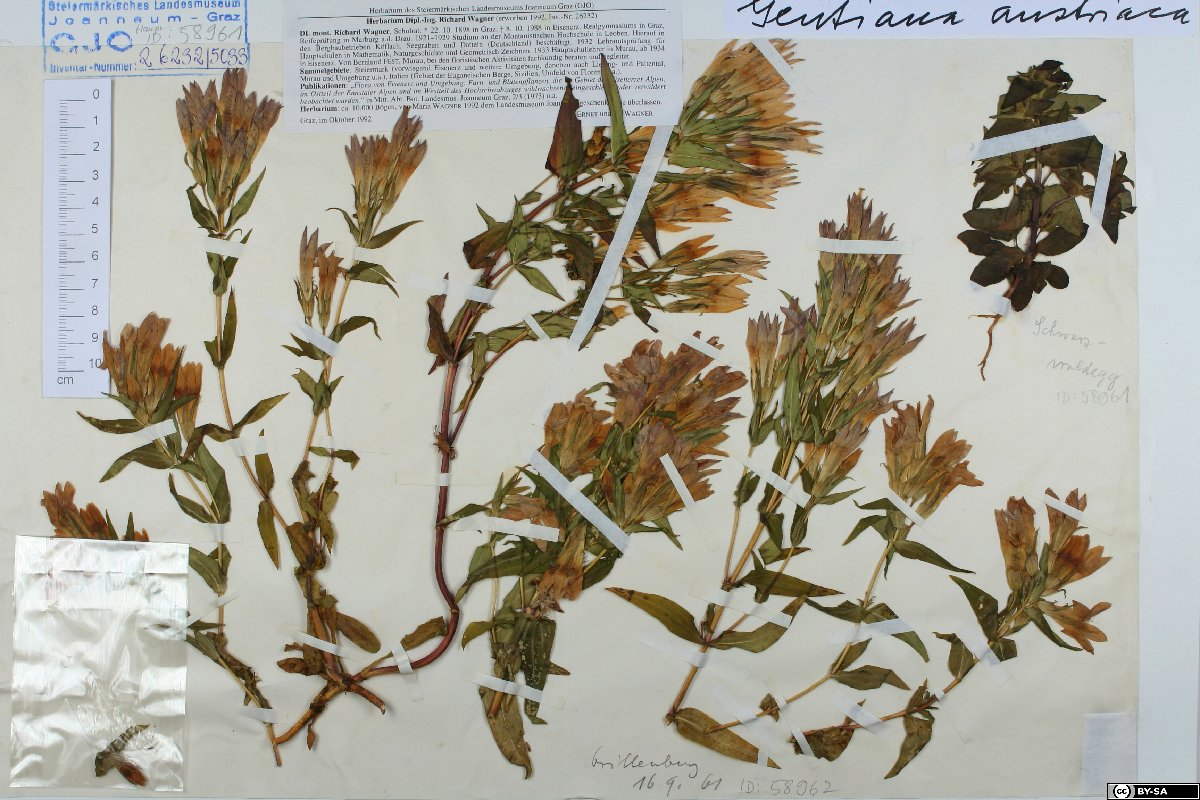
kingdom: Plantae
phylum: Tracheophyta
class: Magnoliopsida
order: Gentianales
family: Gentianaceae
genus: Gentianella
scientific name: Gentianella austriaca
